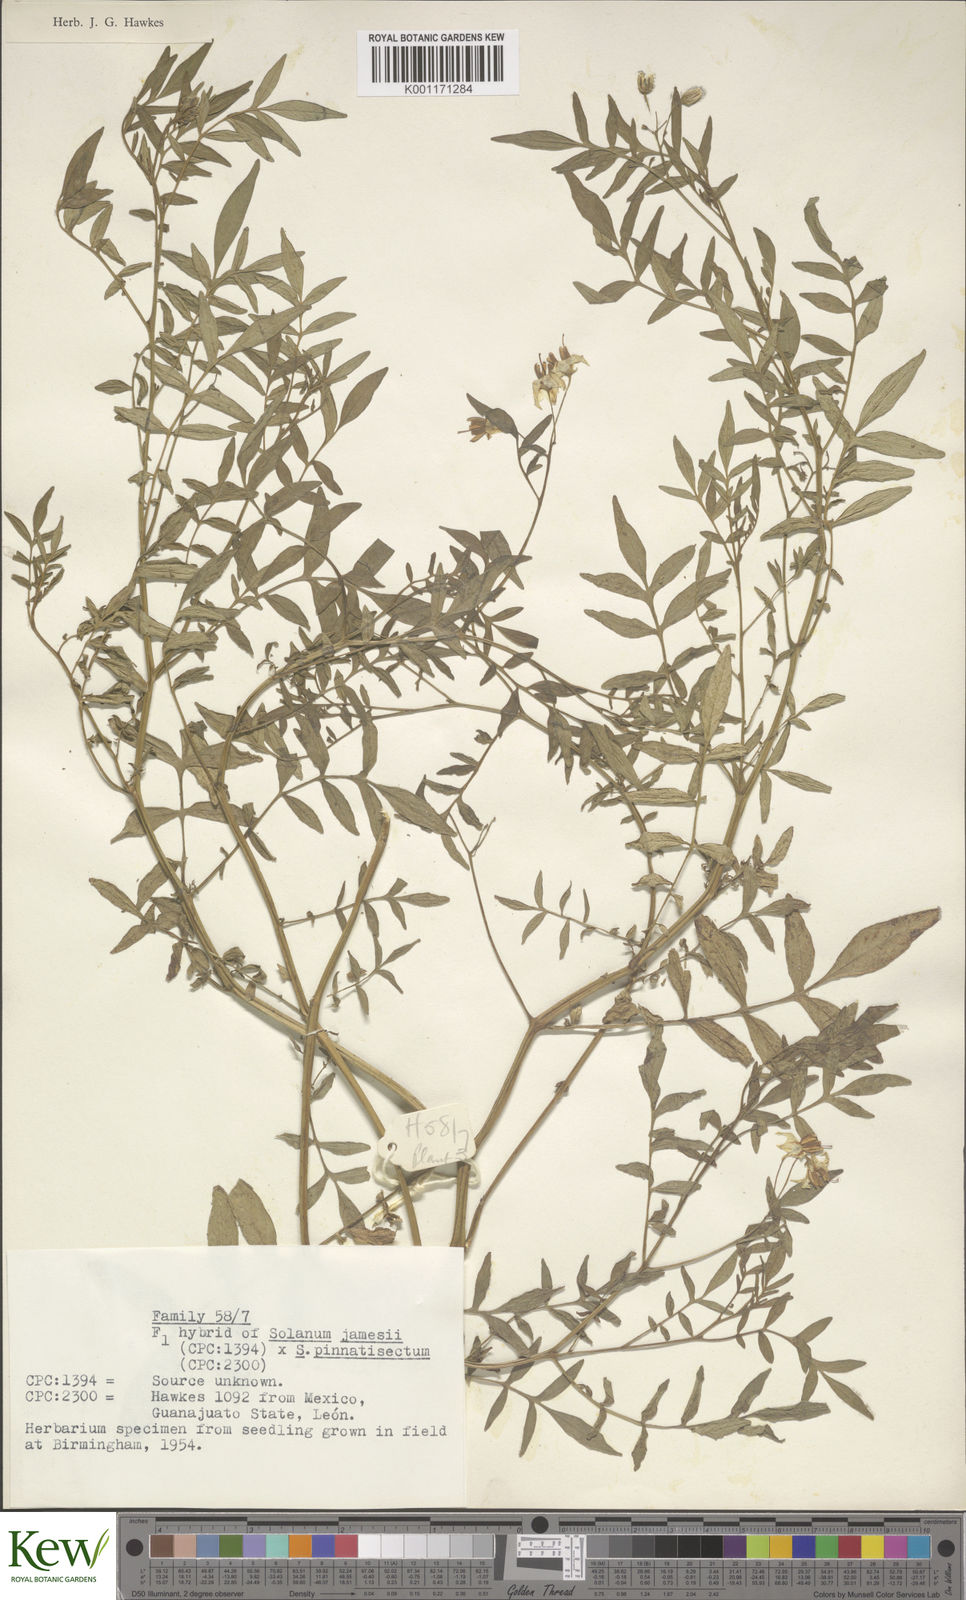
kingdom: Plantae
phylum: Tracheophyta
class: Magnoliopsida
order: Solanales
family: Solanaceae
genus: Solanum
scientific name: Solanum jamesii
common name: Wild potato
